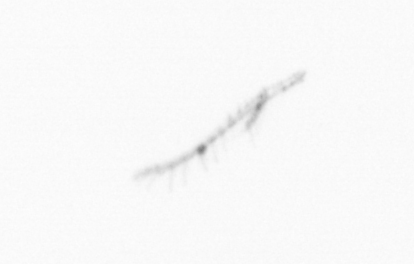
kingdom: Chromista
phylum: Ochrophyta
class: Bacillariophyceae
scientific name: Bacillariophyceae
